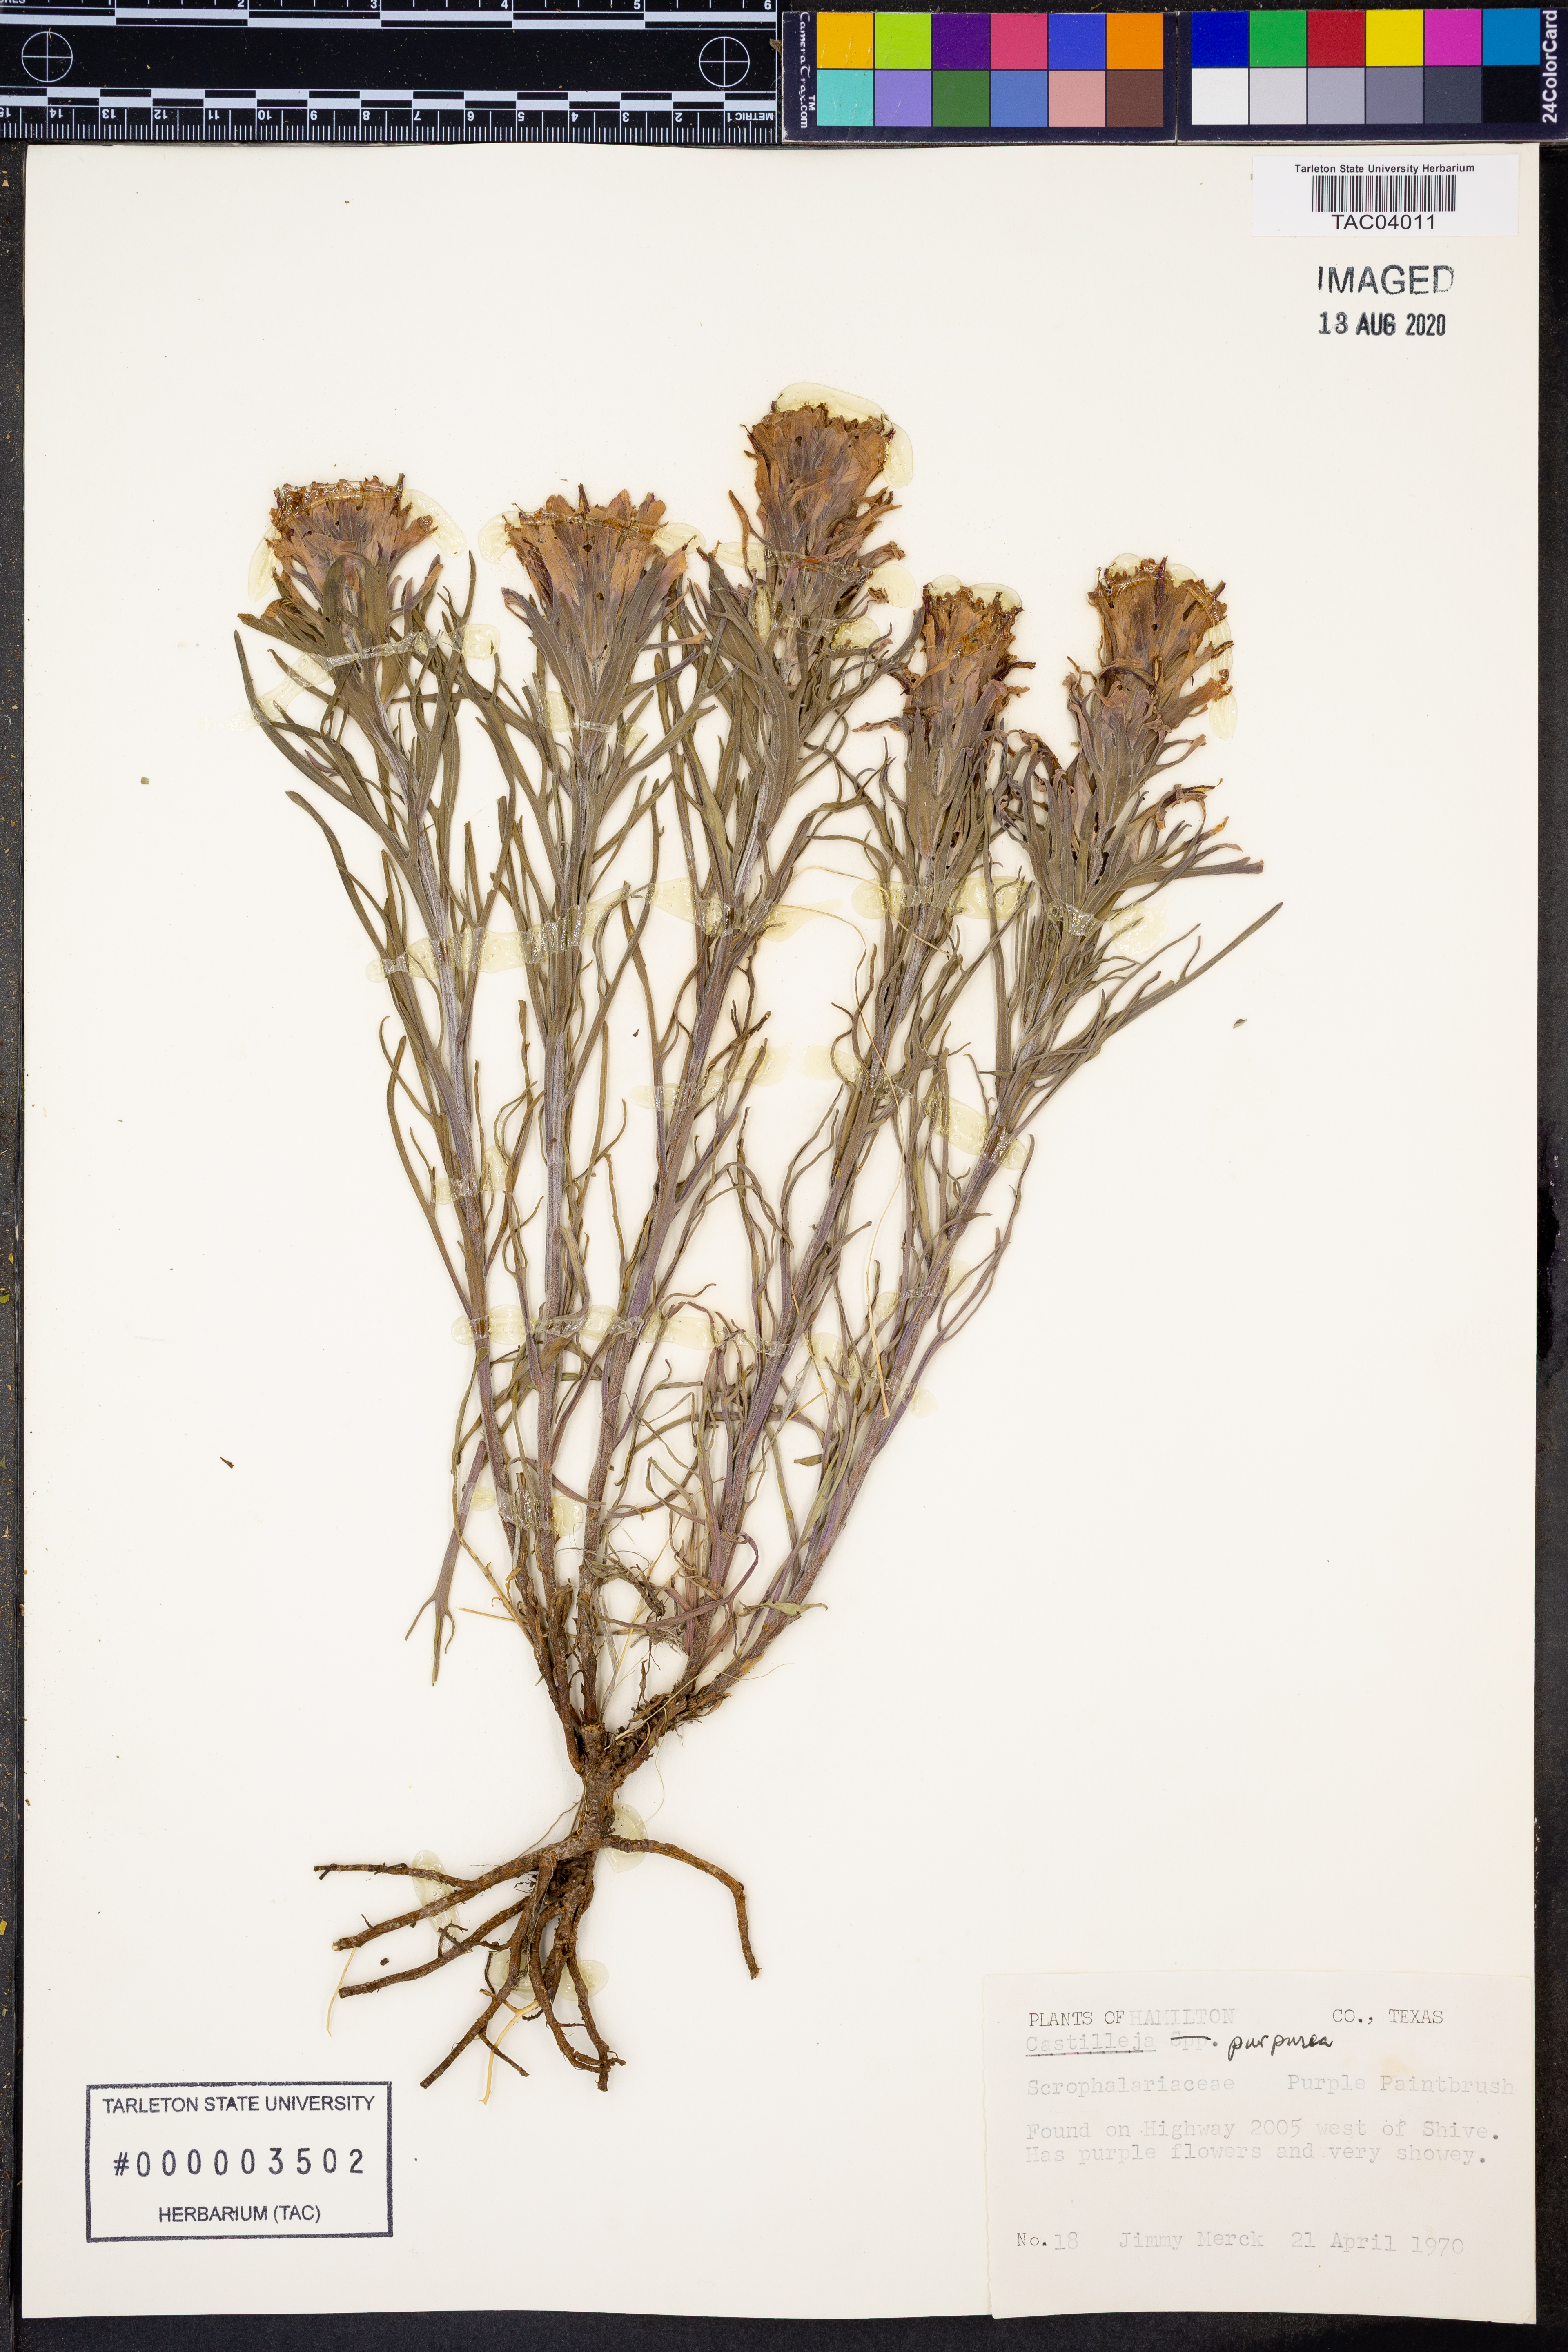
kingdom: Plantae
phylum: Tracheophyta
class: Magnoliopsida
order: Lamiales
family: Orobanchaceae
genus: Castilleja
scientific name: Castilleja purpurea
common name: Plains paintbrush
